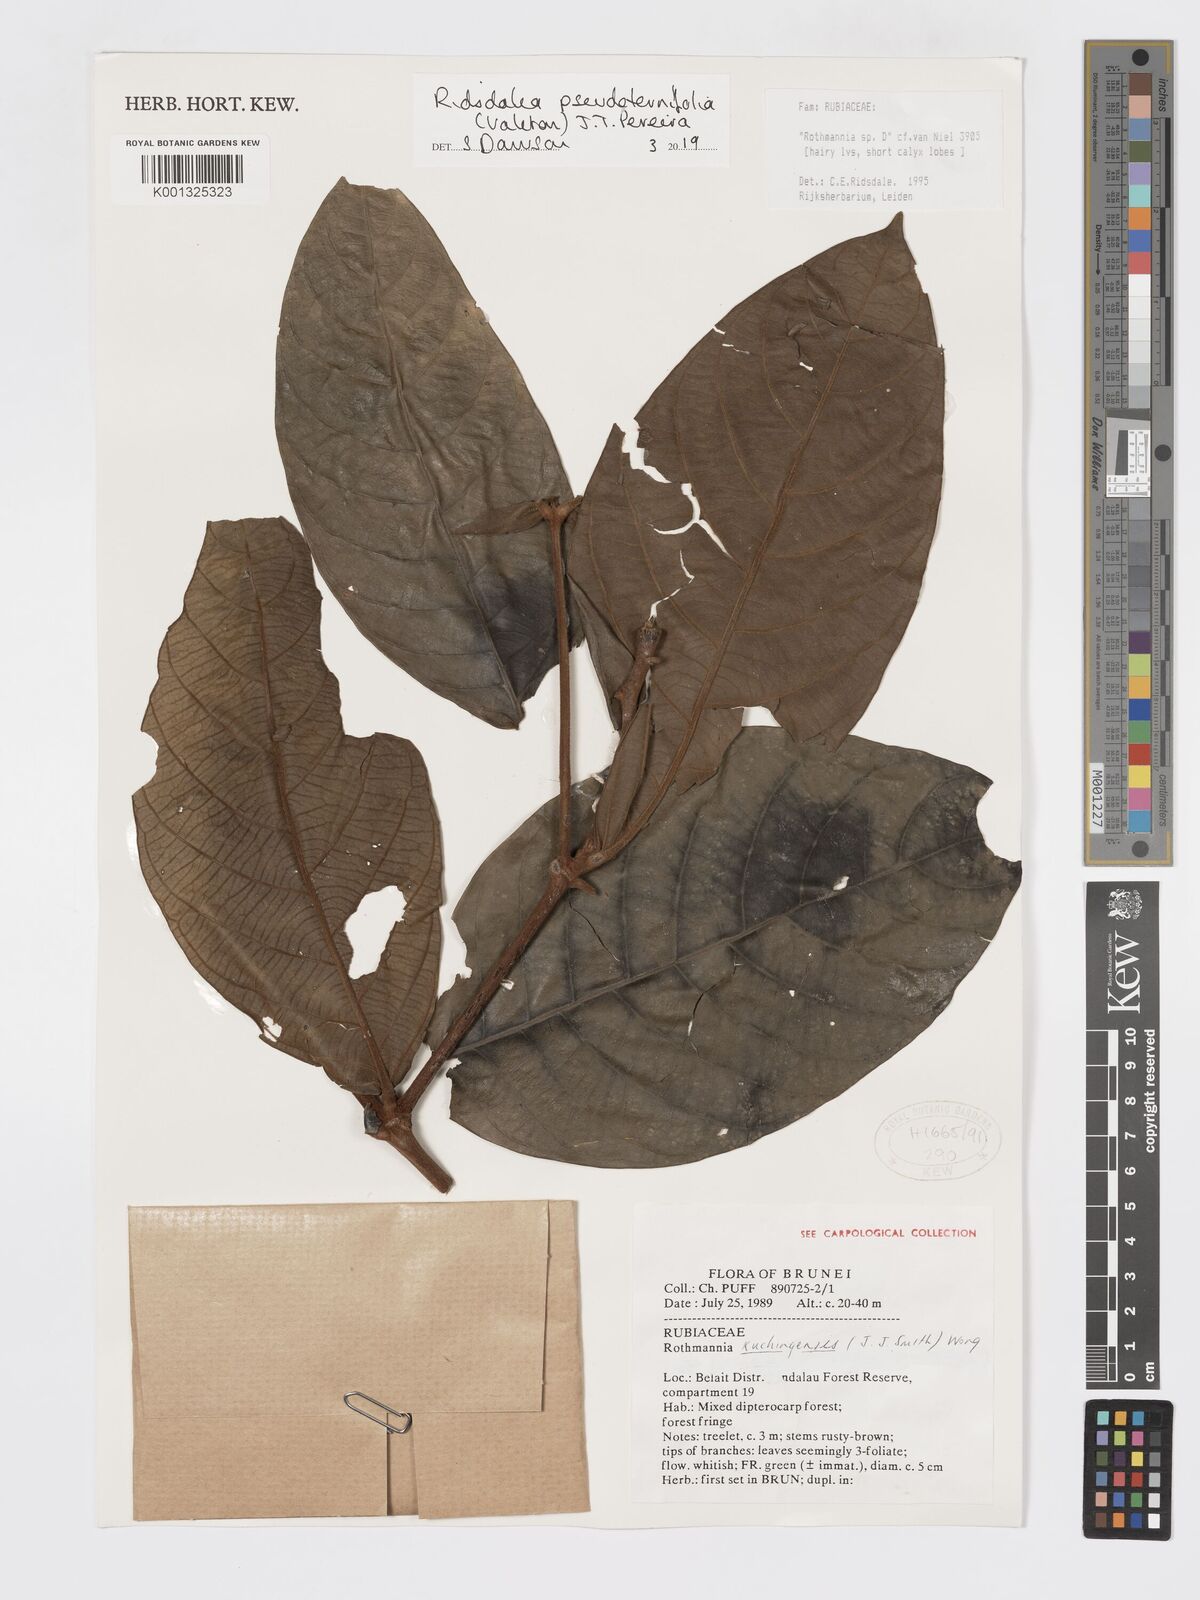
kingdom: Plantae
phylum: Tracheophyta
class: Magnoliopsida
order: Gentianales
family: Rubiaceae
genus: Ridsdalea
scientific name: Ridsdalea pseudoternifolia
